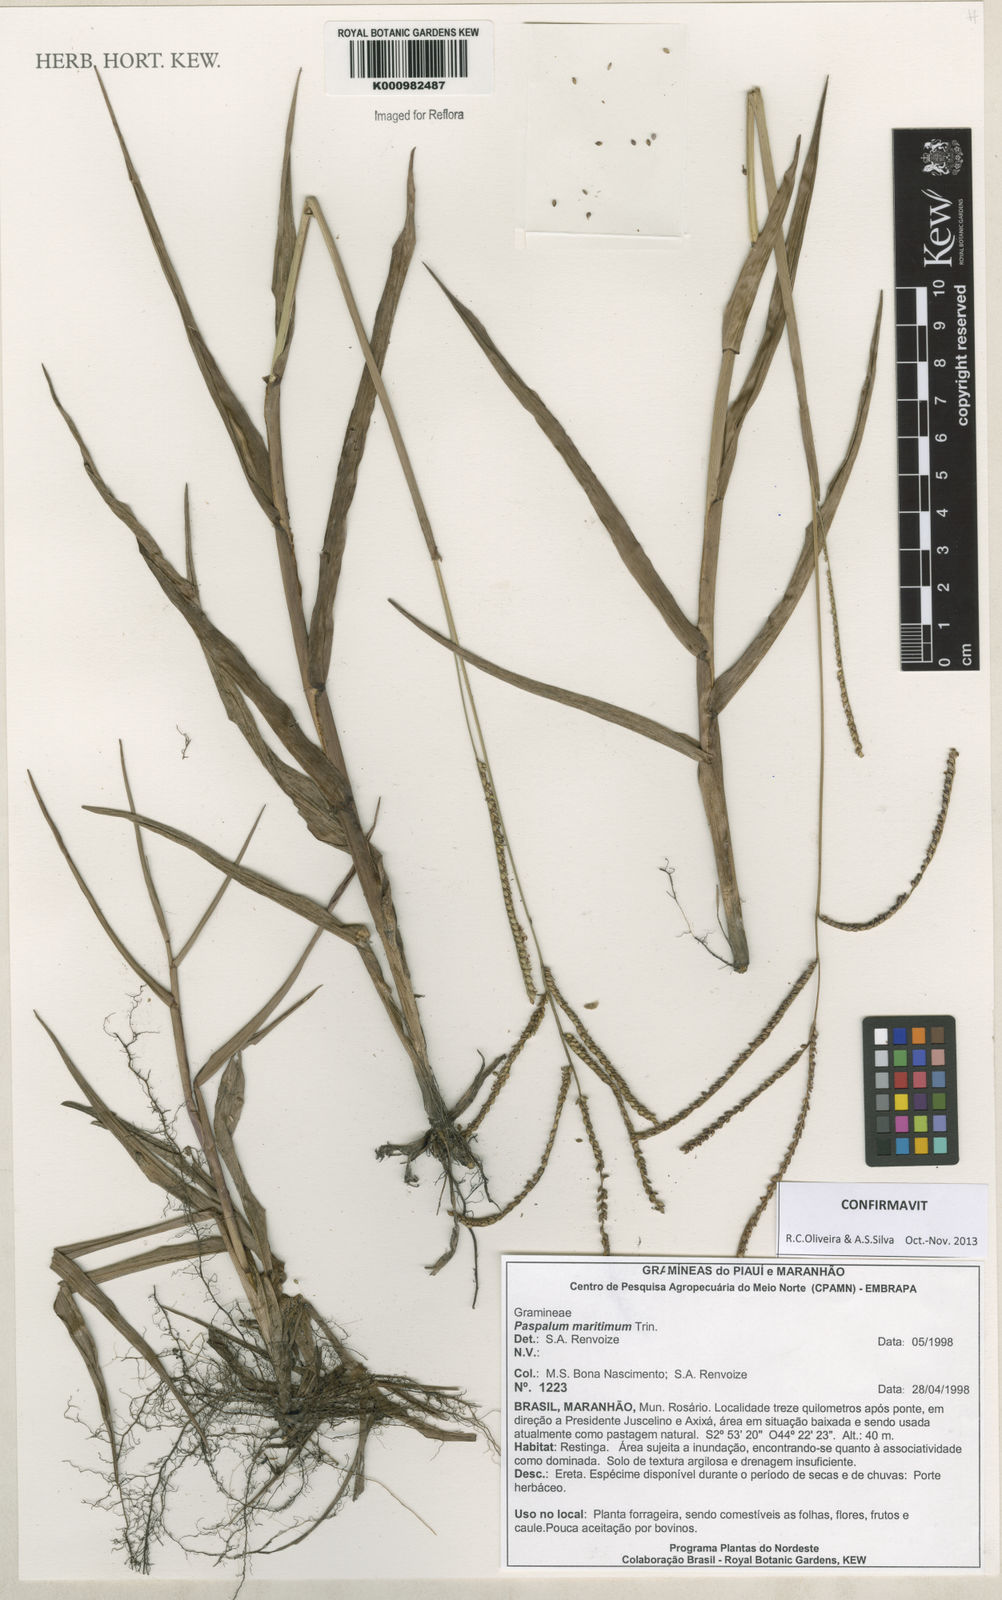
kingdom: Plantae
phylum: Tracheophyta
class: Liliopsida
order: Poales
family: Poaceae
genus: Paspalum
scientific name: Paspalum maritimum
